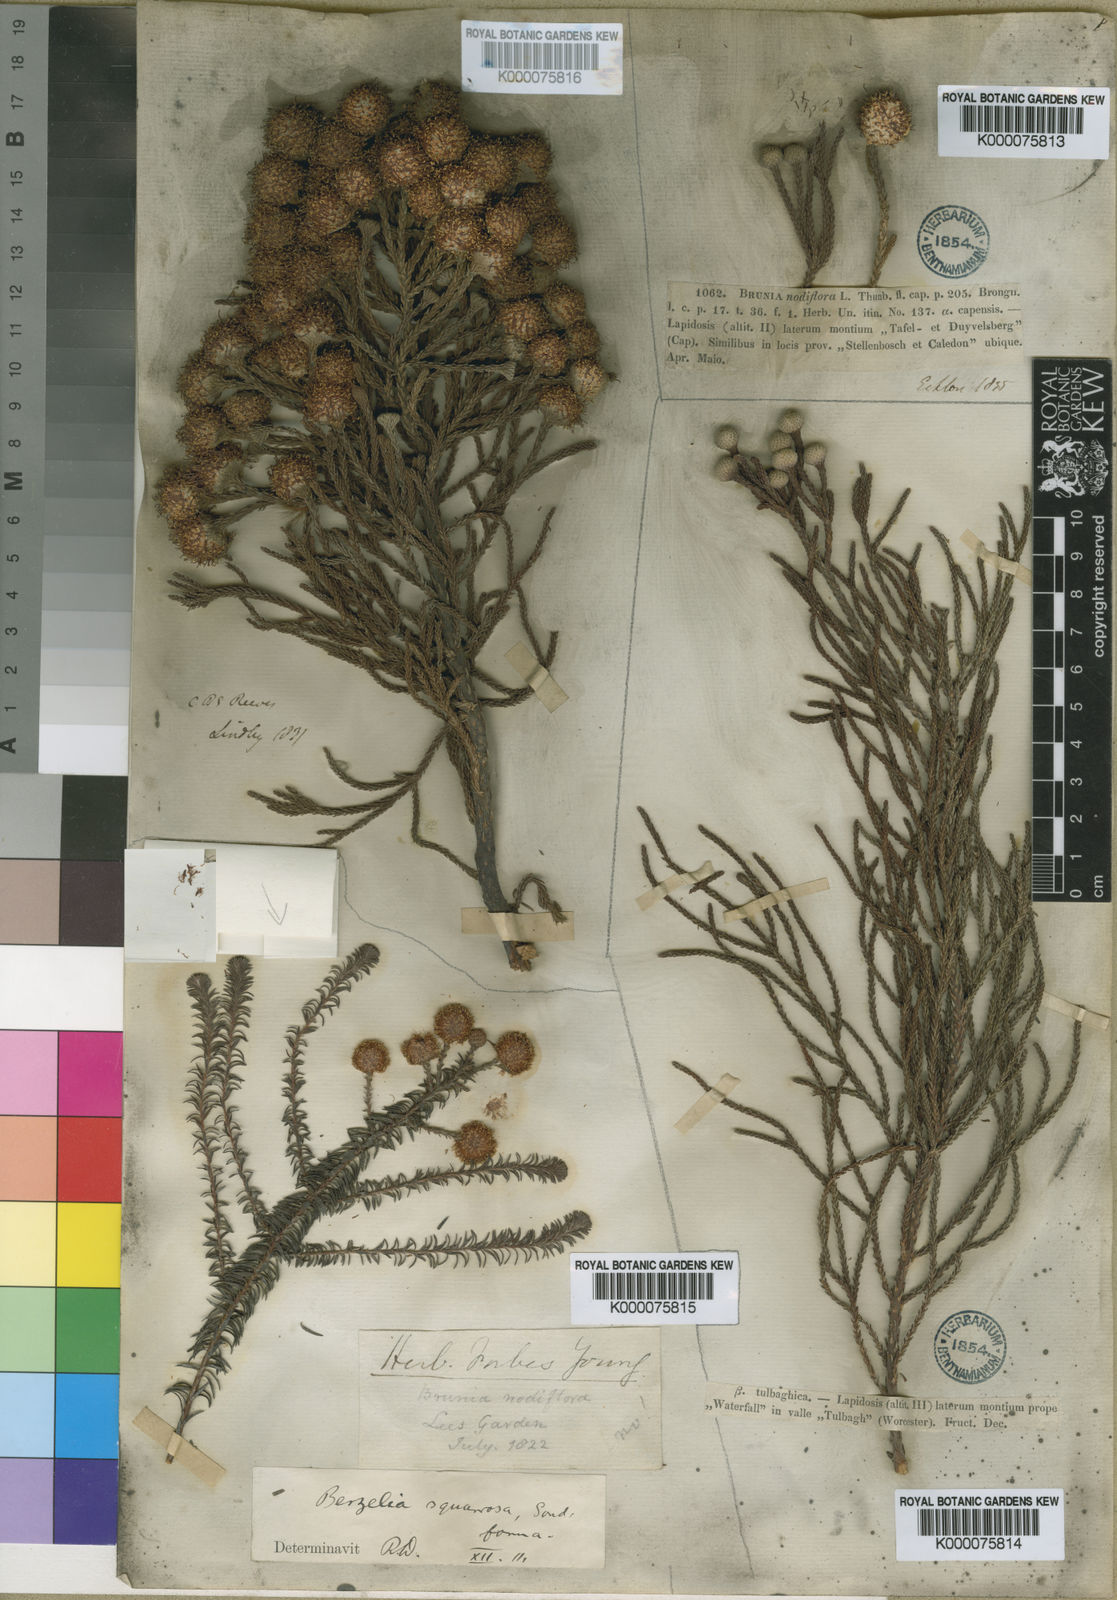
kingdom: Plantae
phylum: Tracheophyta
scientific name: Tracheophyta
